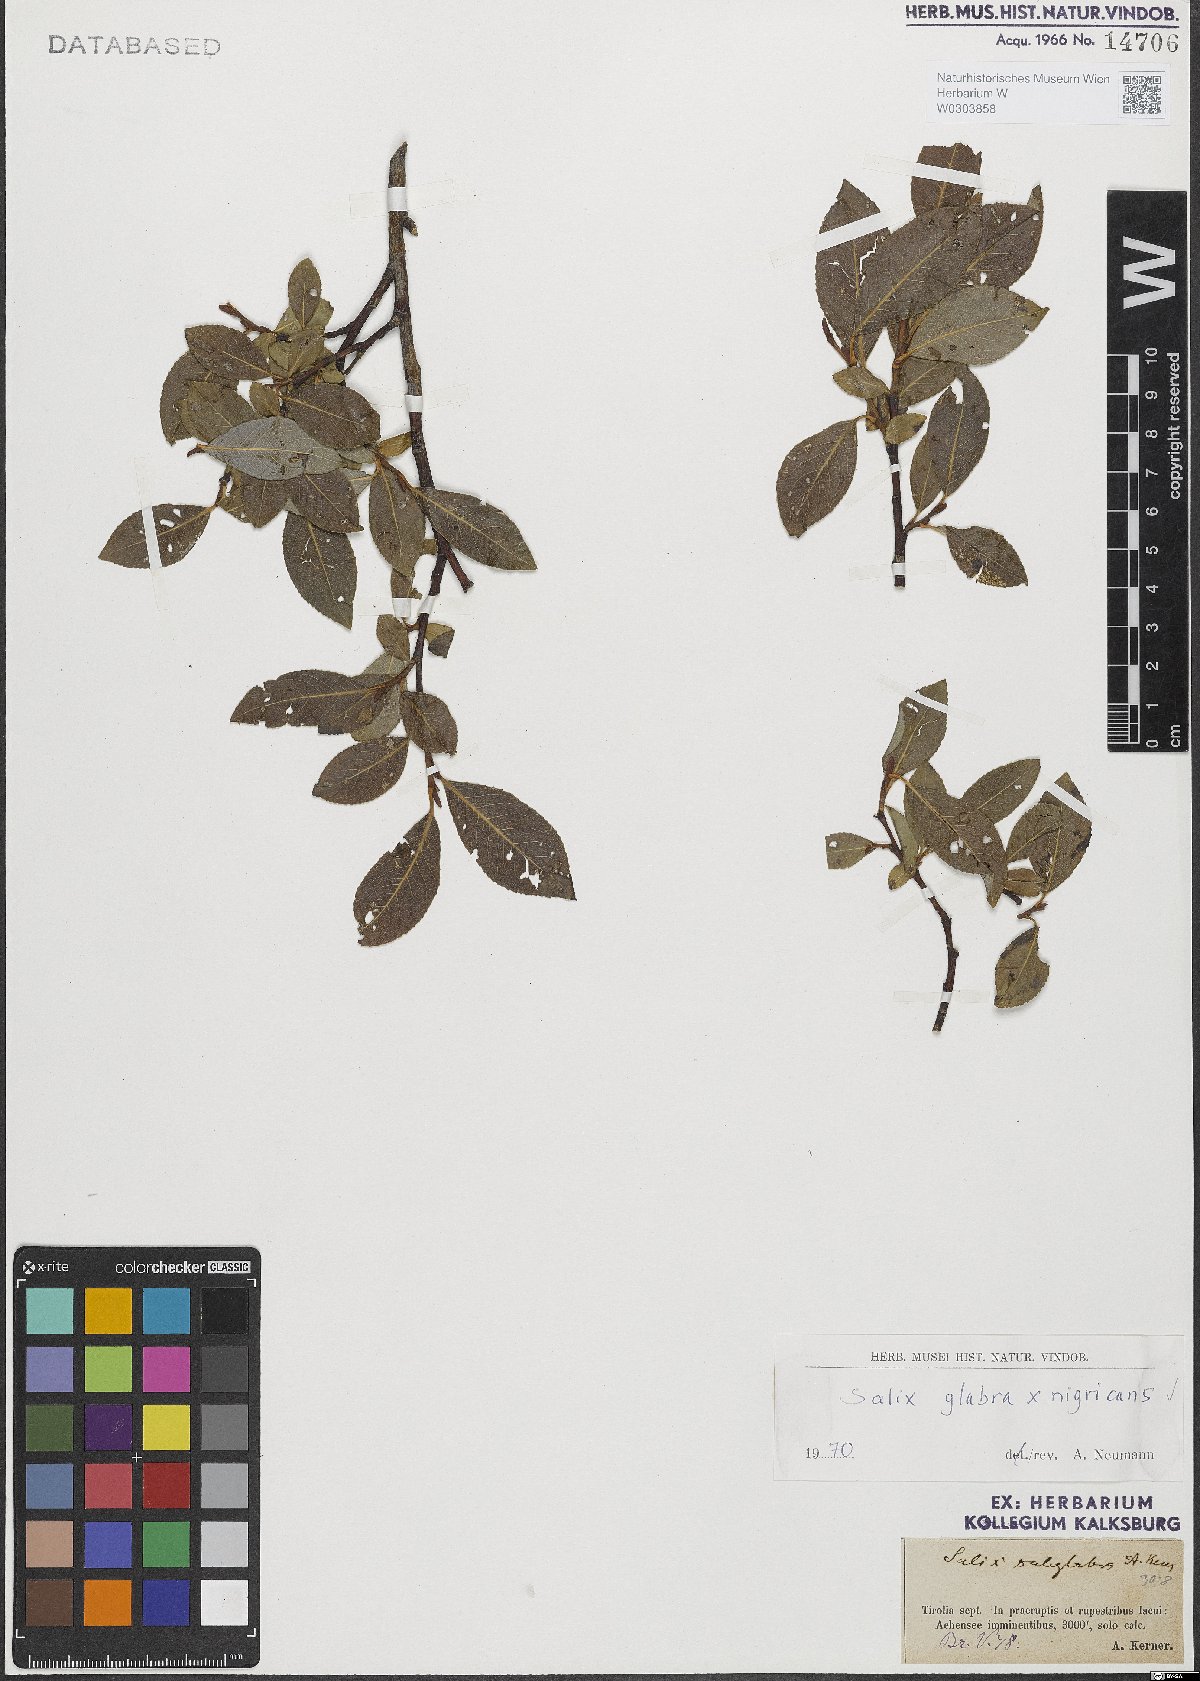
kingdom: Plantae
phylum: Tracheophyta
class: Magnoliopsida
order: Malpighiales
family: Salicaceae
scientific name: Salicaceae
